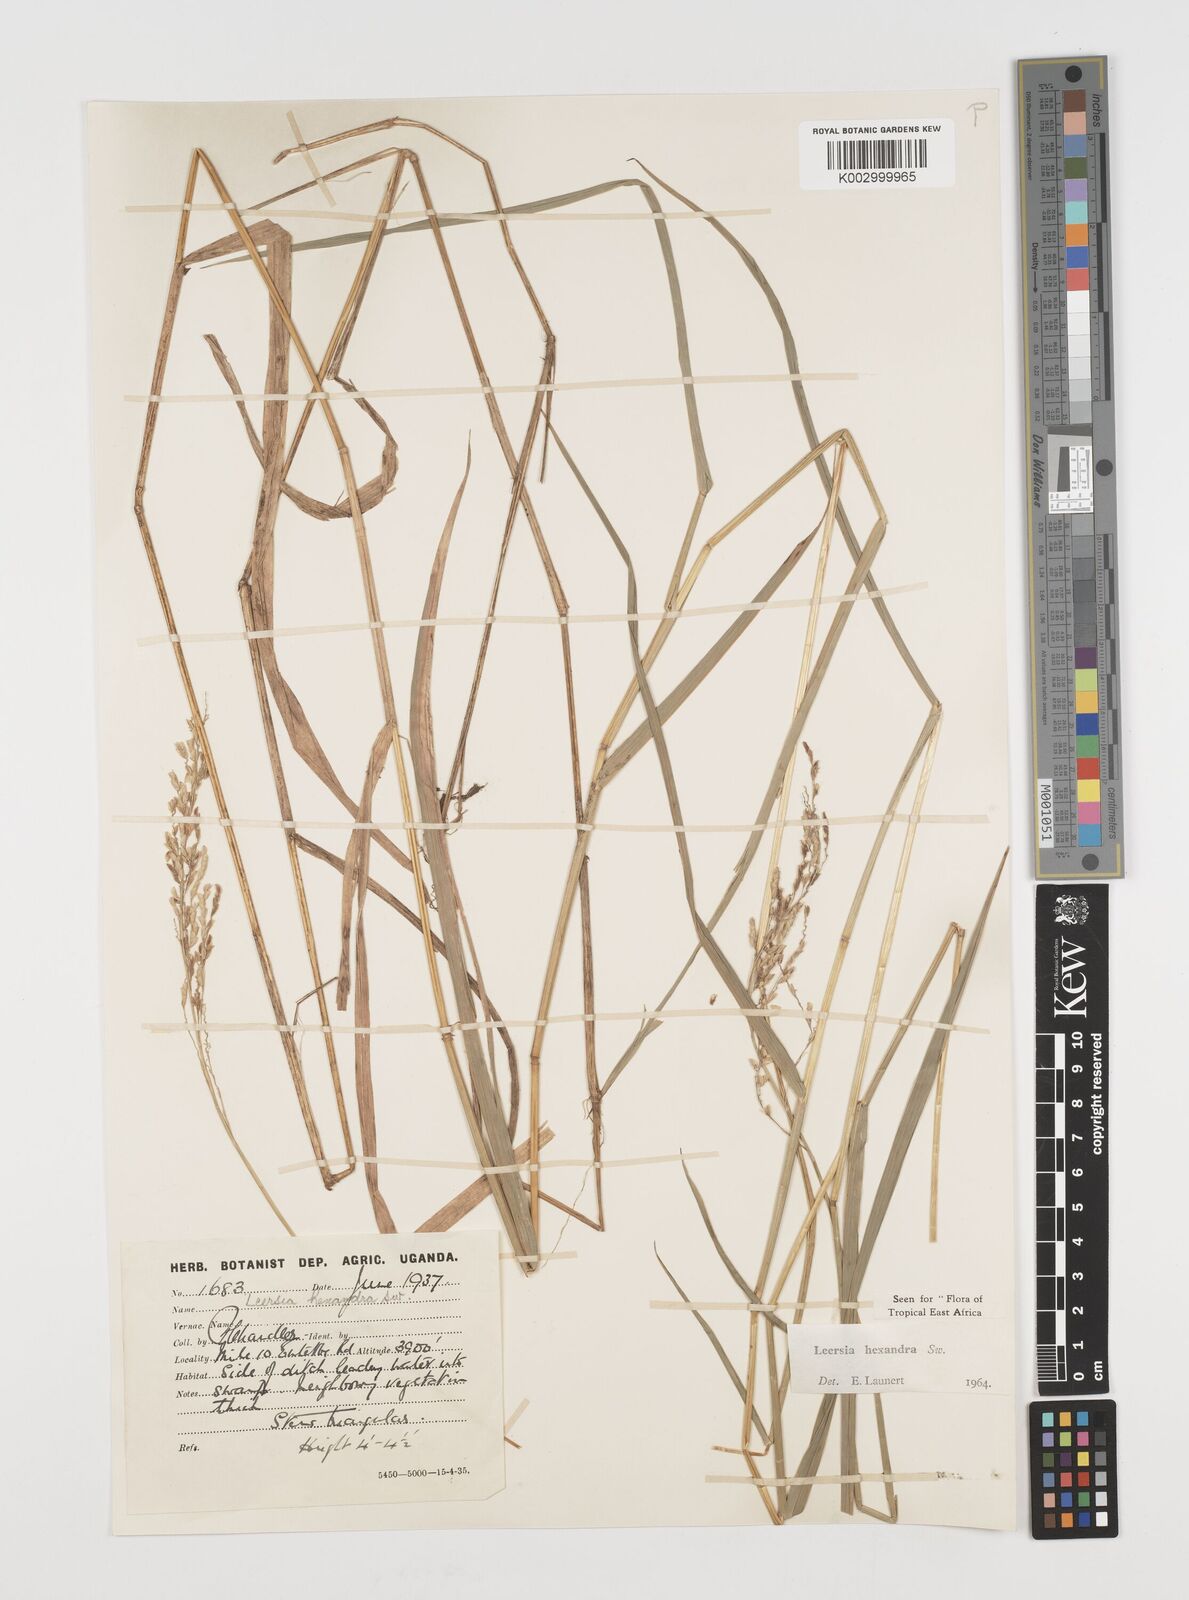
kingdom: Plantae
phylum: Tracheophyta
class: Liliopsida
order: Poales
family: Poaceae
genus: Leersia
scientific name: Leersia hexandra
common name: Southern cut grass
